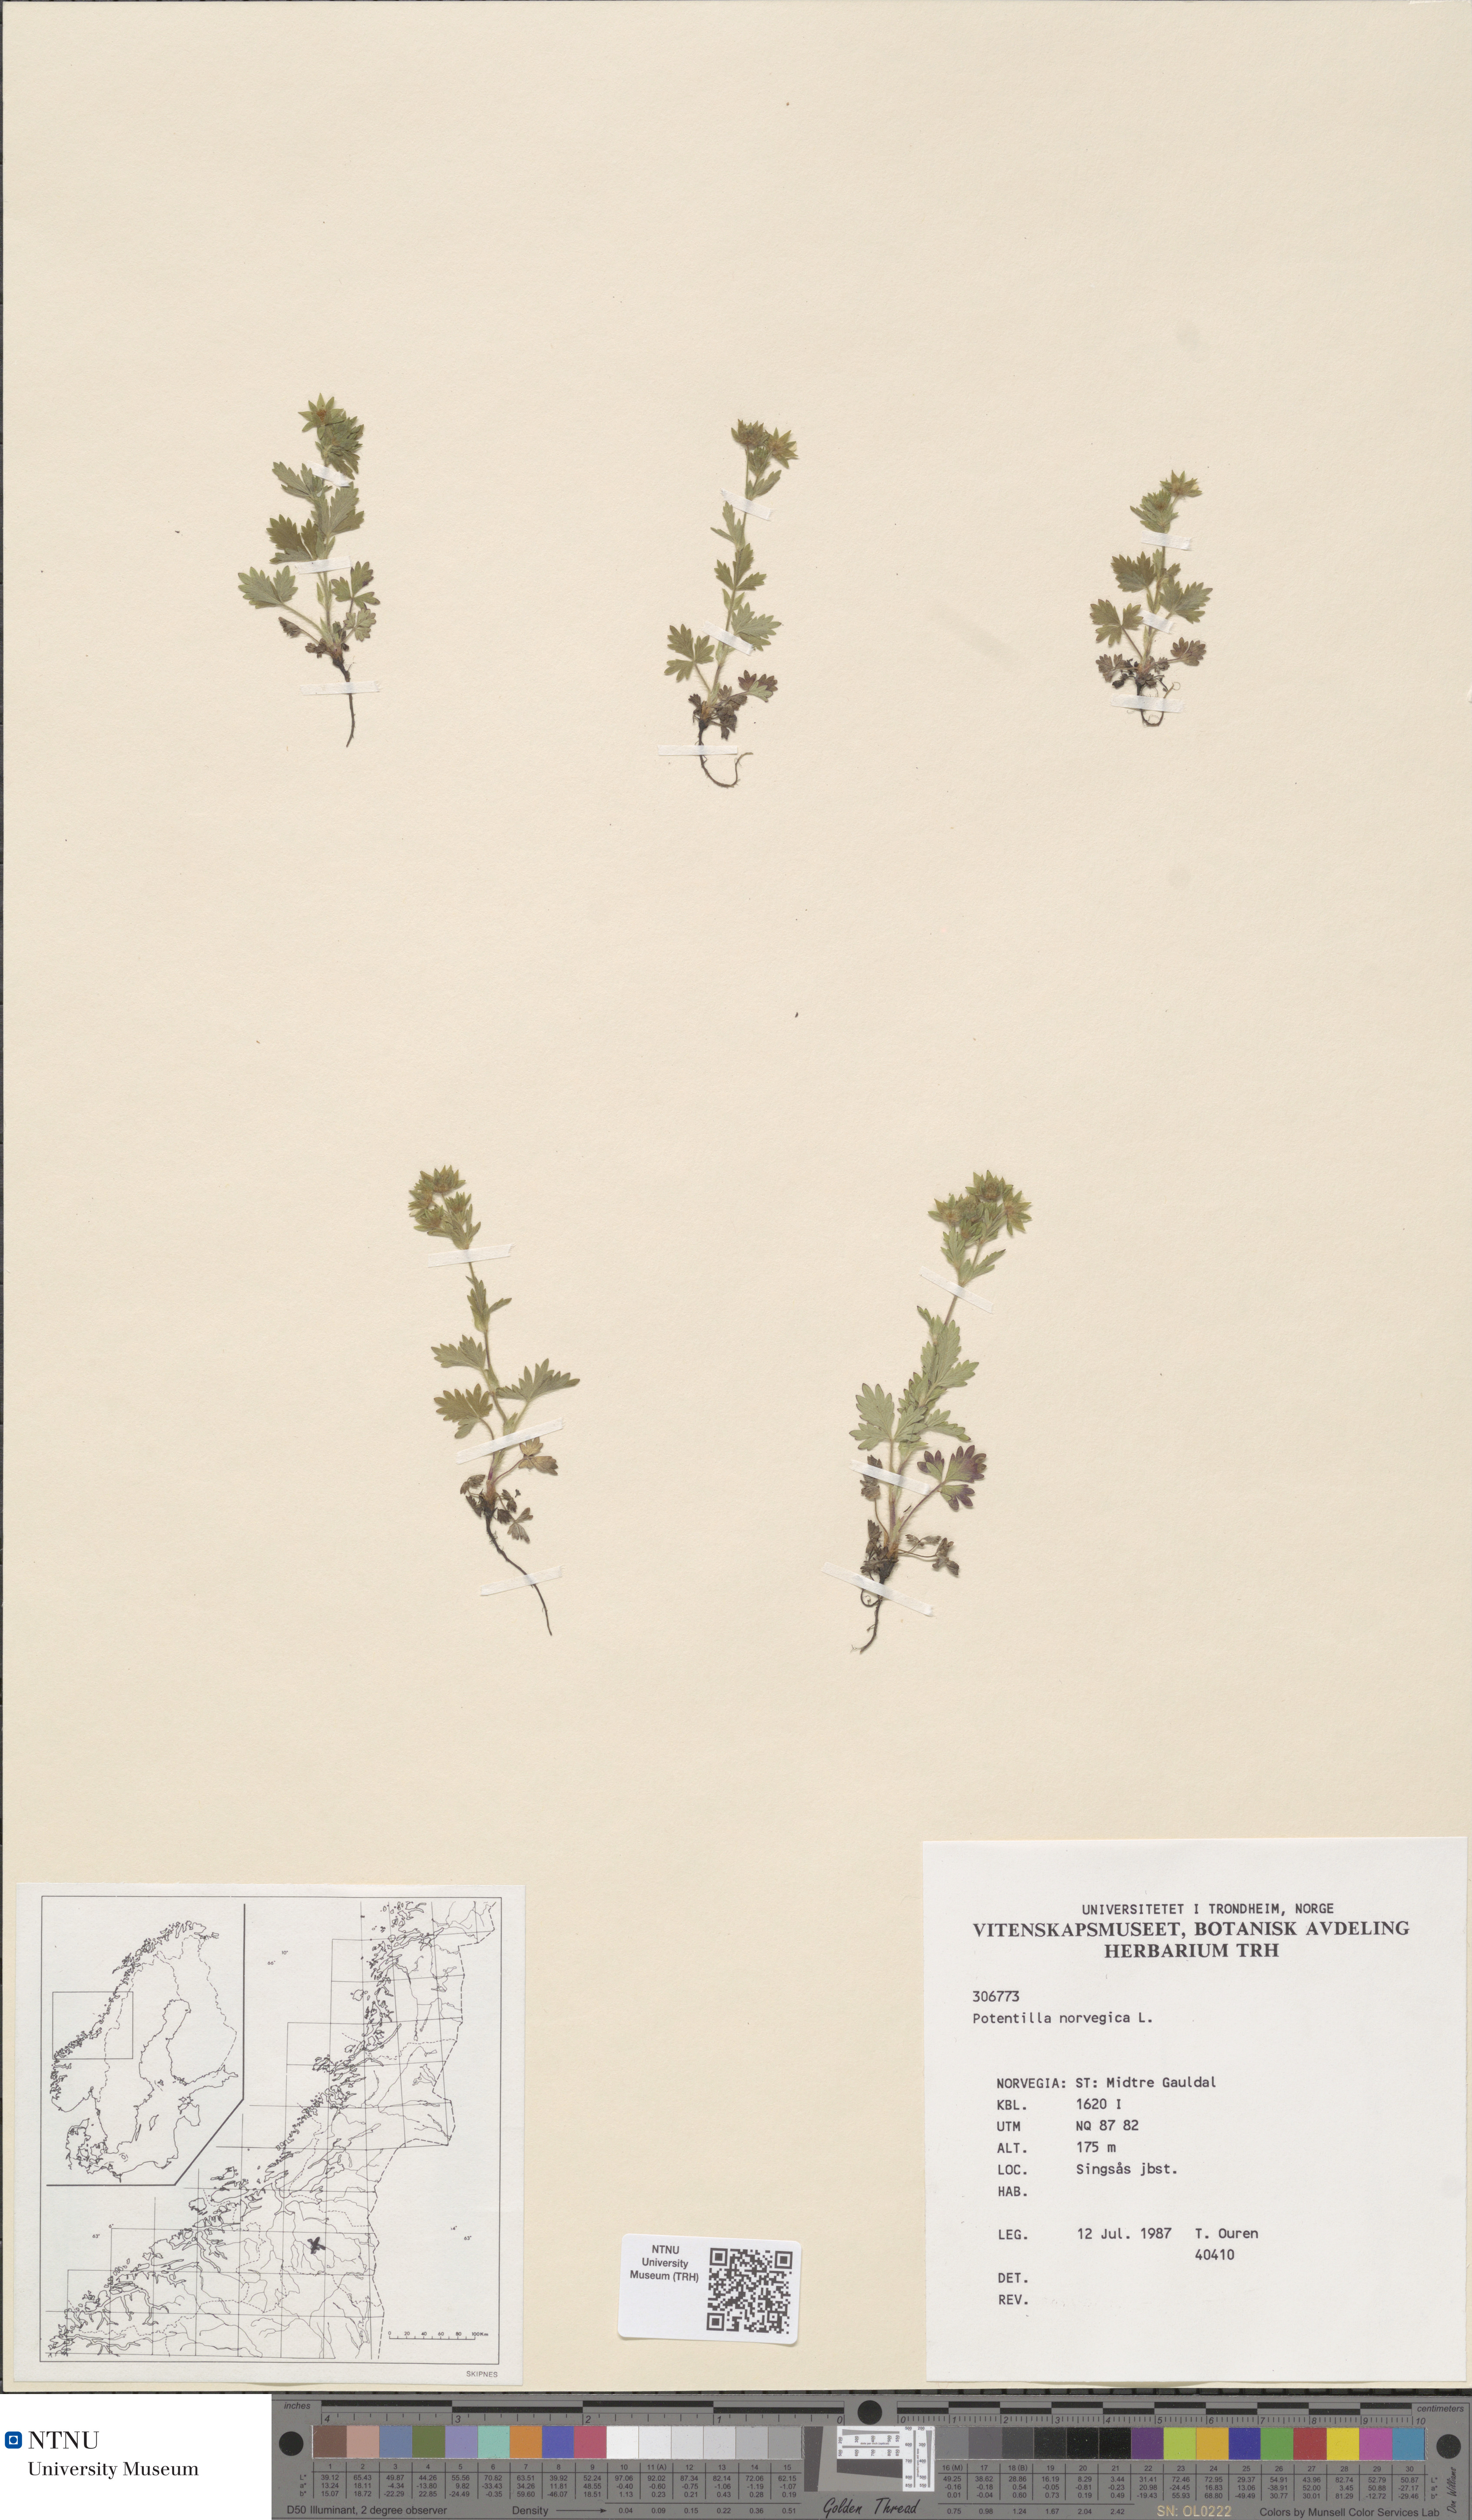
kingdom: Plantae
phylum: Tracheophyta
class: Magnoliopsida
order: Rosales
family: Rosaceae
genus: Potentilla
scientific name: Potentilla norvegica
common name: Ternate-leaved cinquefoil
